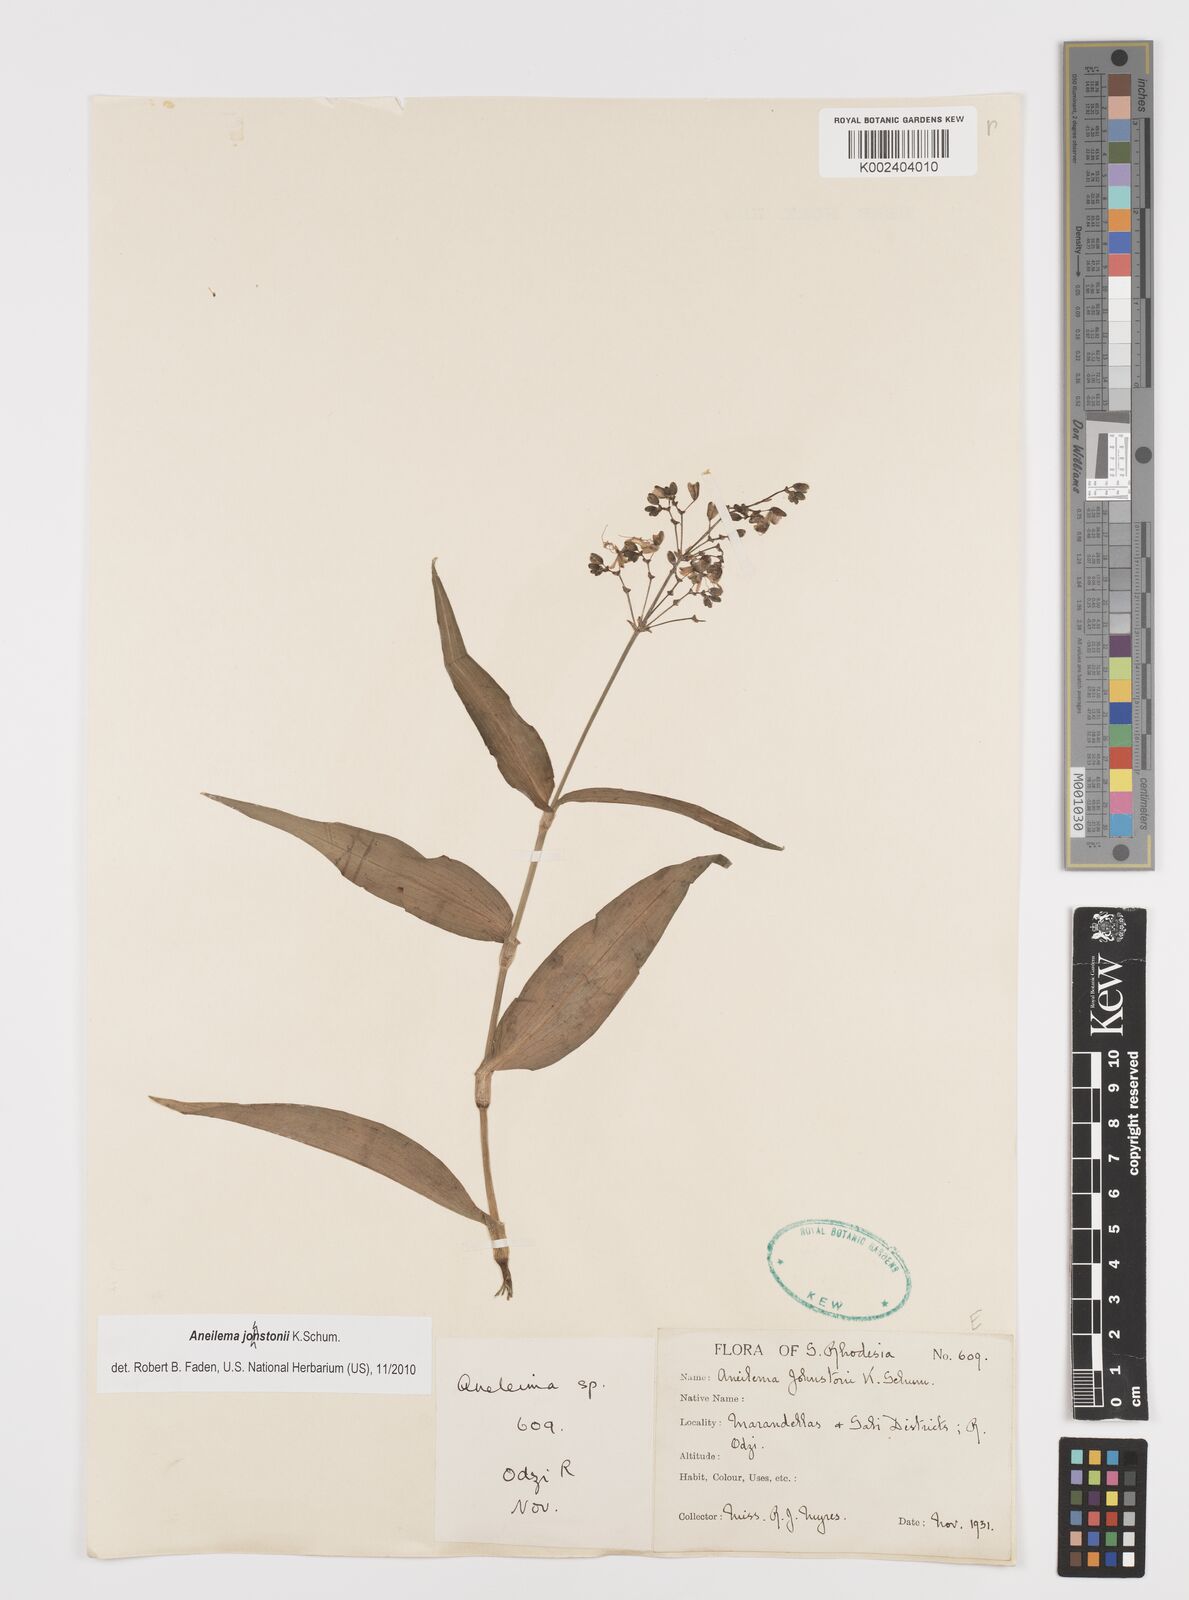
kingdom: Plantae
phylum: Tracheophyta
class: Liliopsida
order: Commelinales
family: Commelinaceae
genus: Aneilema
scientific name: Aneilema johnstonii
